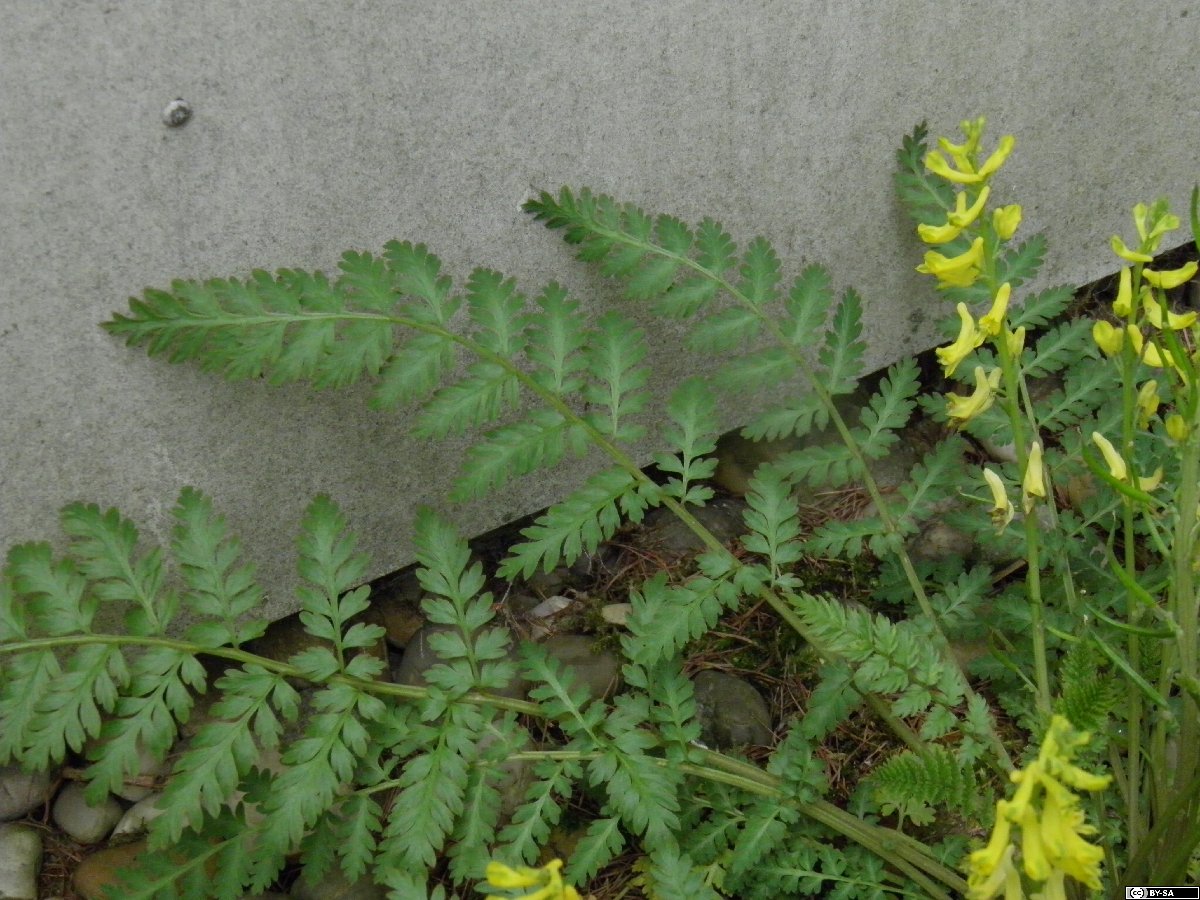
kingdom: Plantae
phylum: Tracheophyta
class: Magnoliopsida
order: Ranunculales
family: Papaveraceae
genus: Corydalis
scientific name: Corydalis cheilanthifolia
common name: Fern-leaved corydalis
